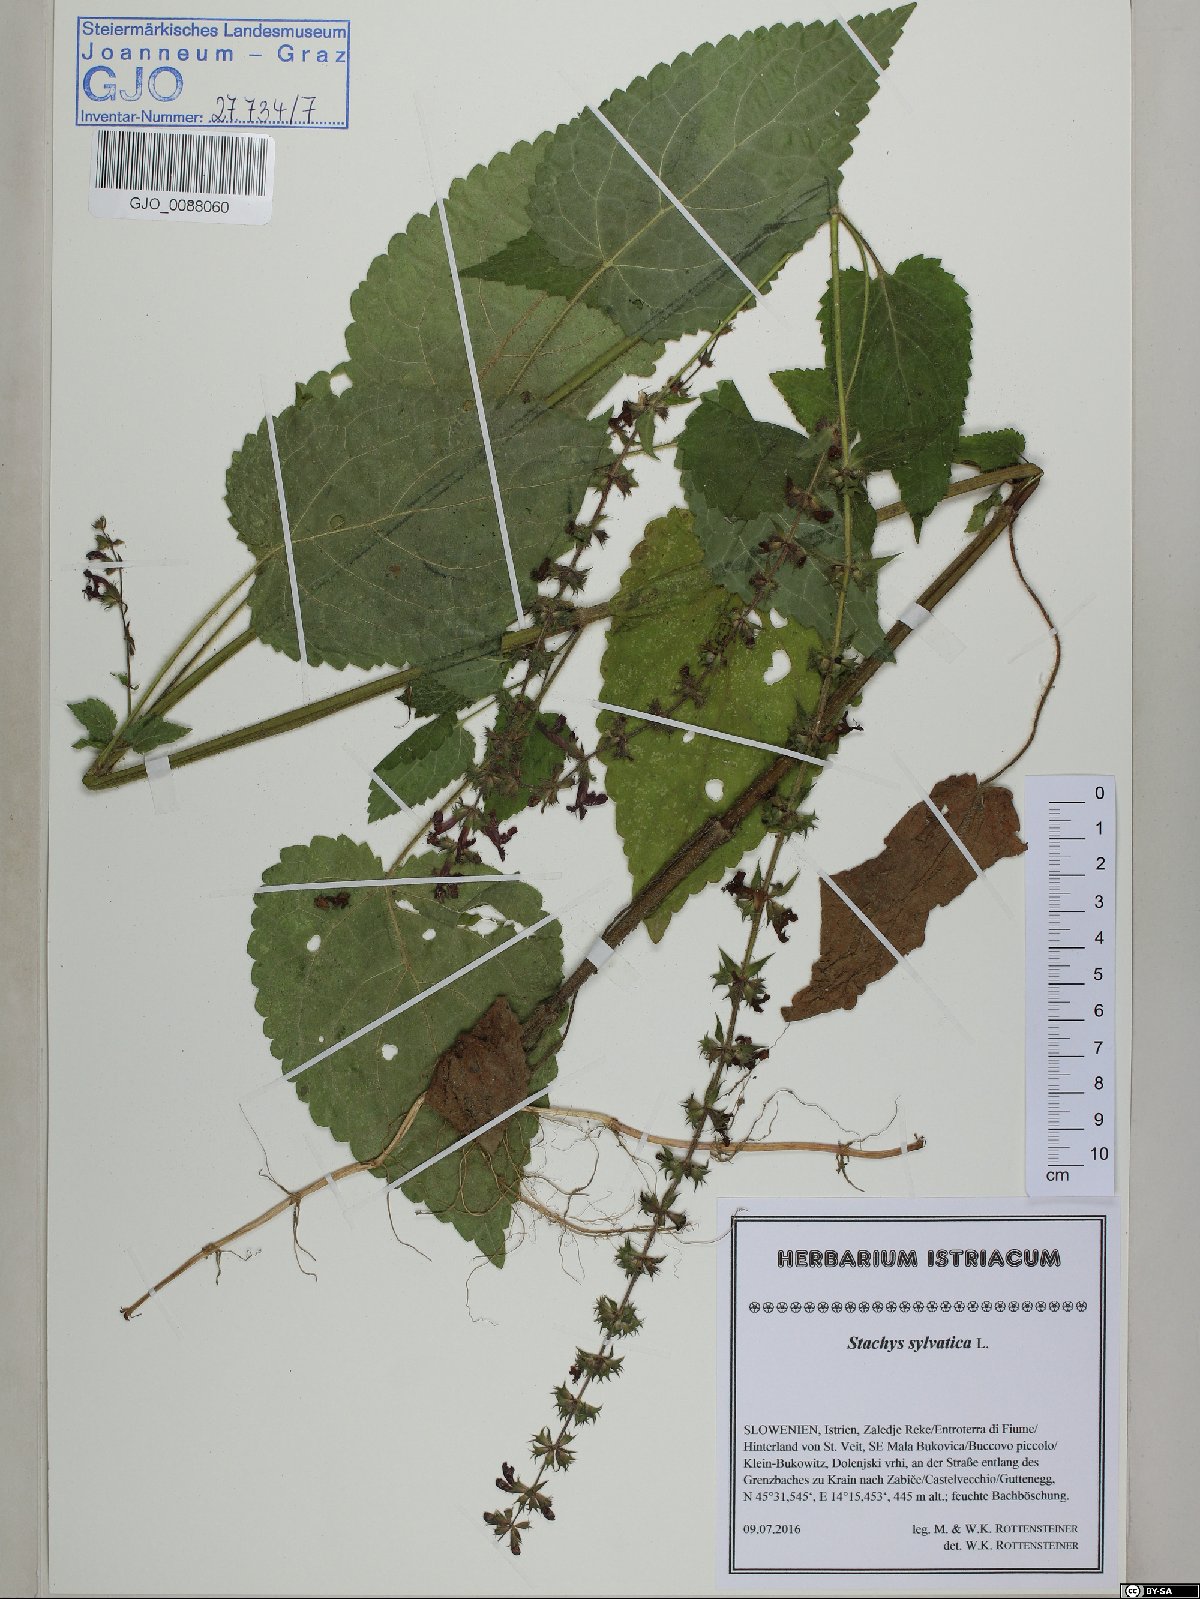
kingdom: Plantae
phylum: Tracheophyta
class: Magnoliopsida
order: Lamiales
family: Lamiaceae
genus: Stachys
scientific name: Stachys sylvatica
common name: Hedge woundwort
